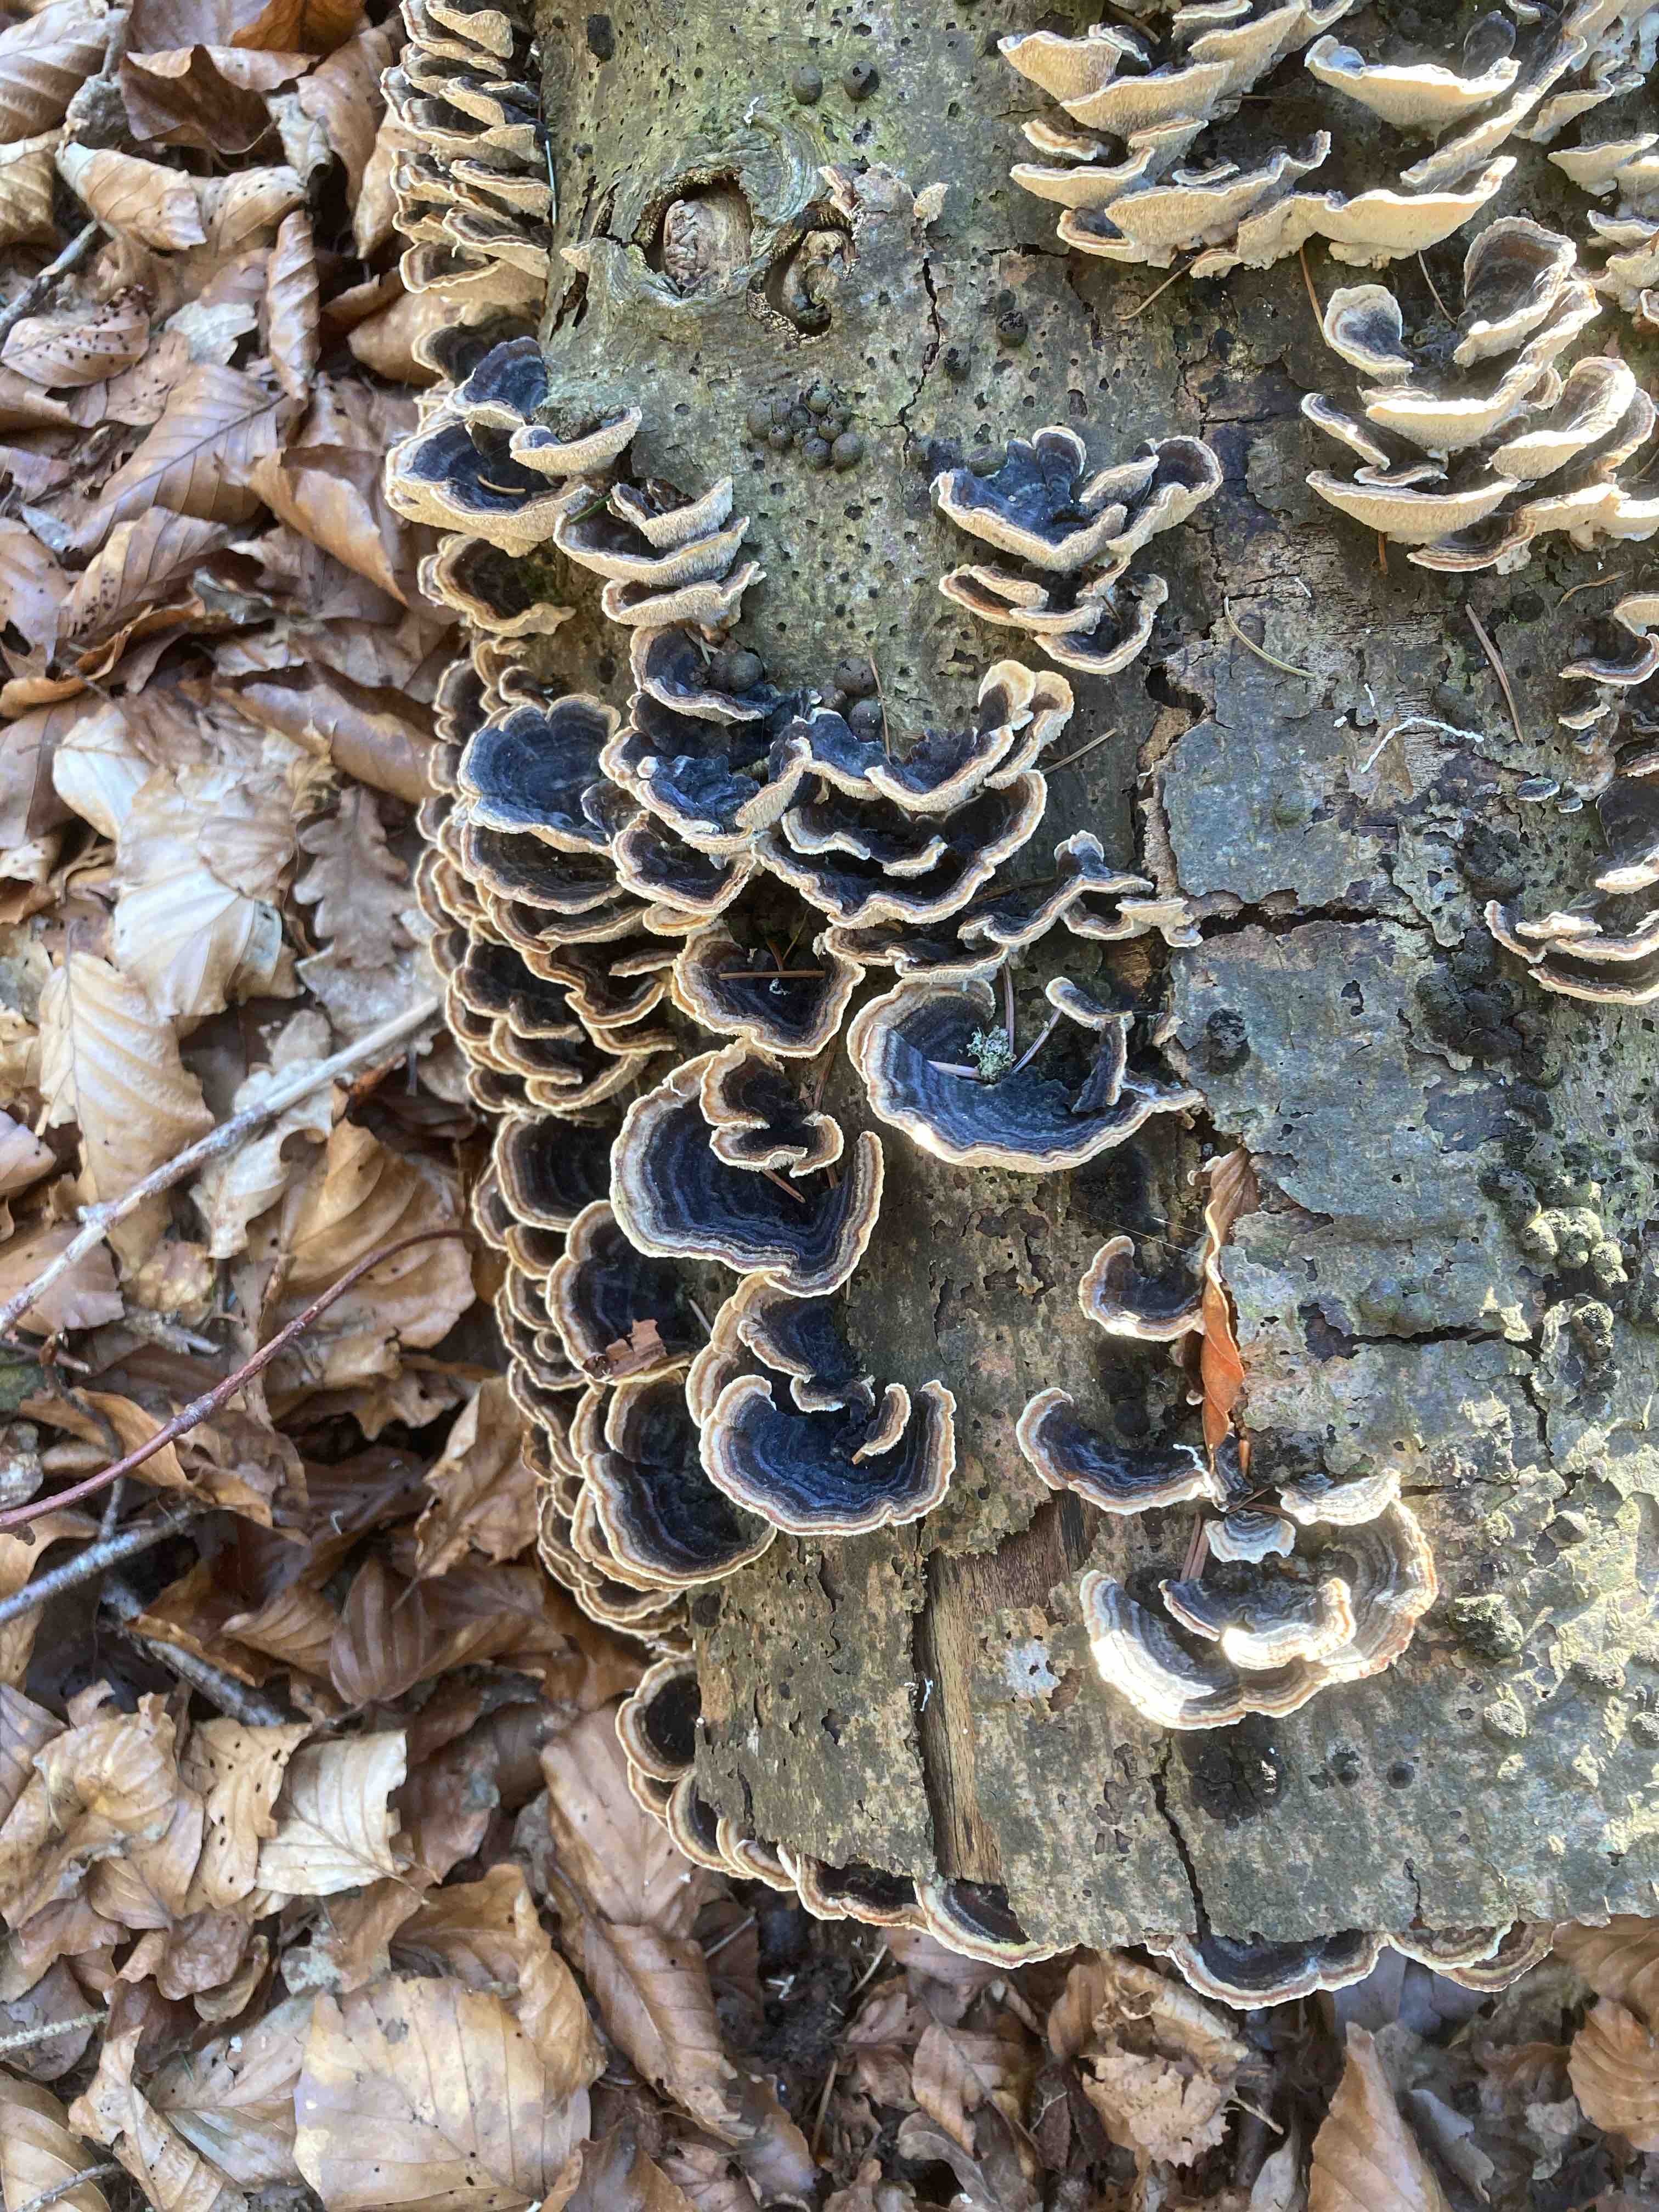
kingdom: Fungi
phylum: Basidiomycota
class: Agaricomycetes
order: Polyporales
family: Polyporaceae
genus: Trametes
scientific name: Trametes versicolor
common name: broget læderporesvamp
